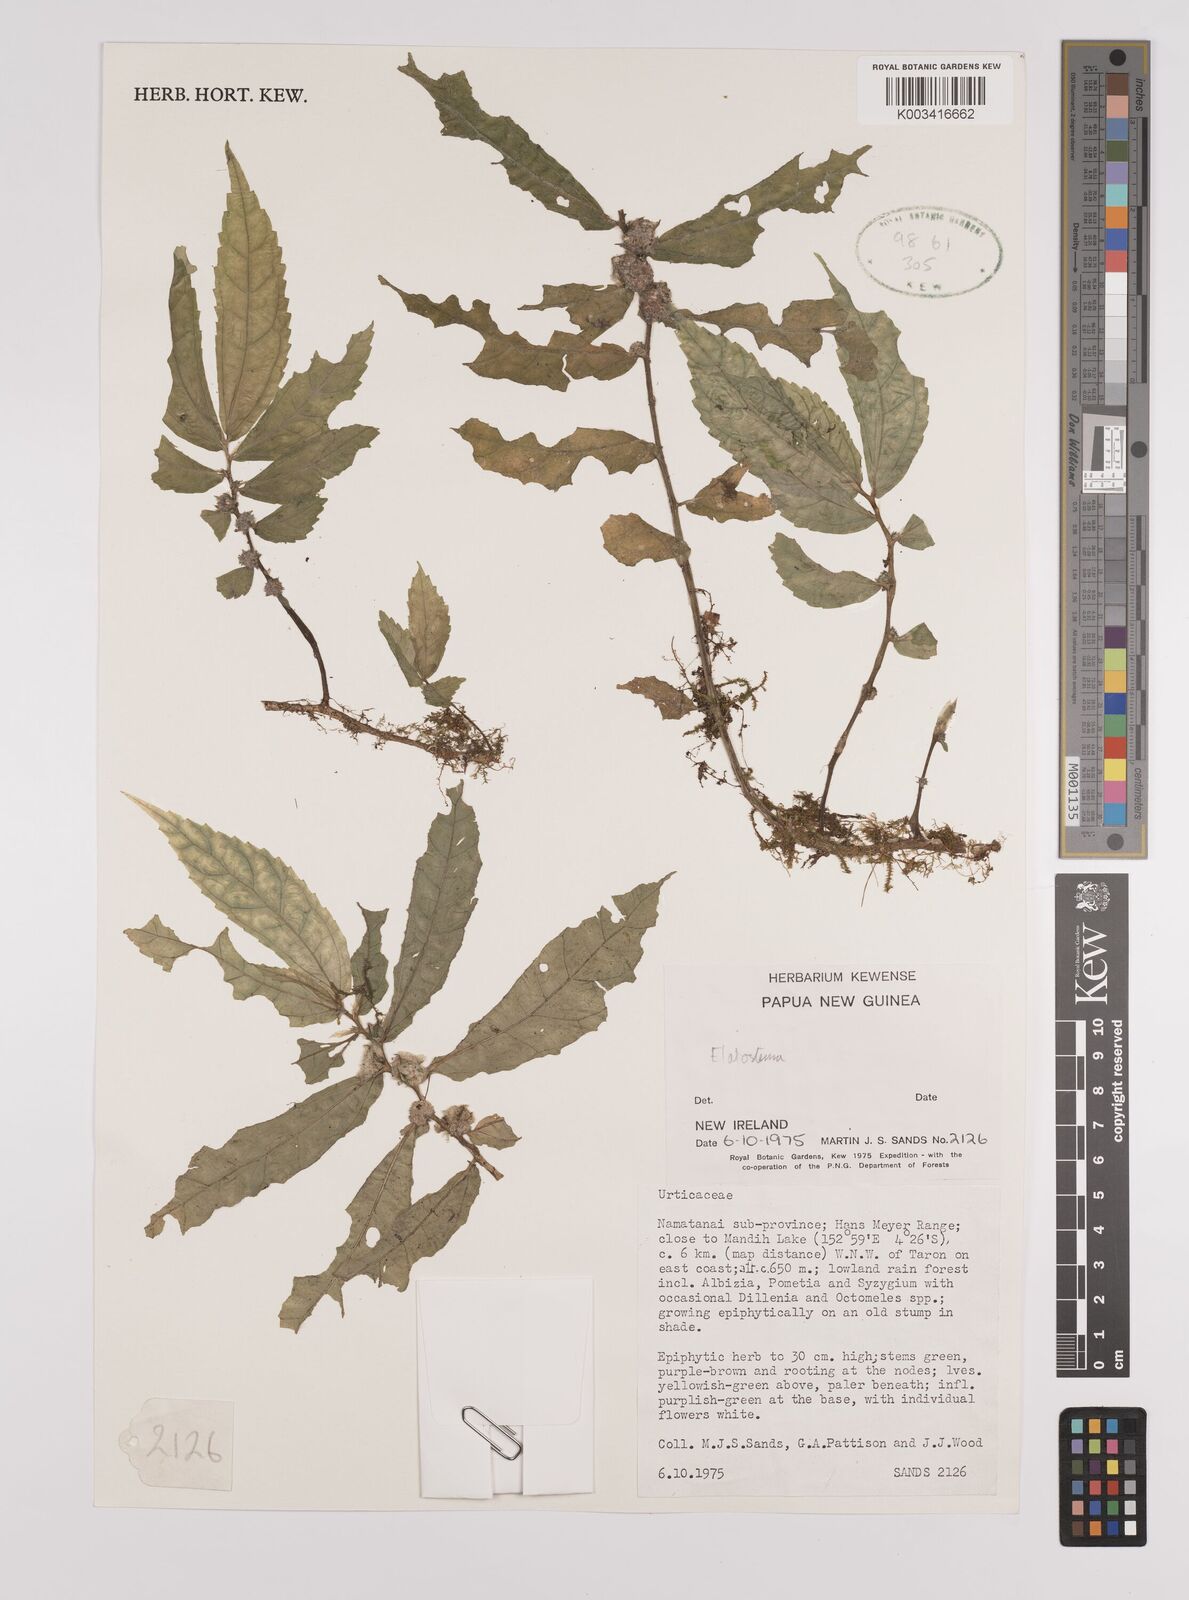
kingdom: Plantae
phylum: Tracheophyta
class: Magnoliopsida
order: Rosales
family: Urticaceae
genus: Elatostema
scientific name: Elatostema
